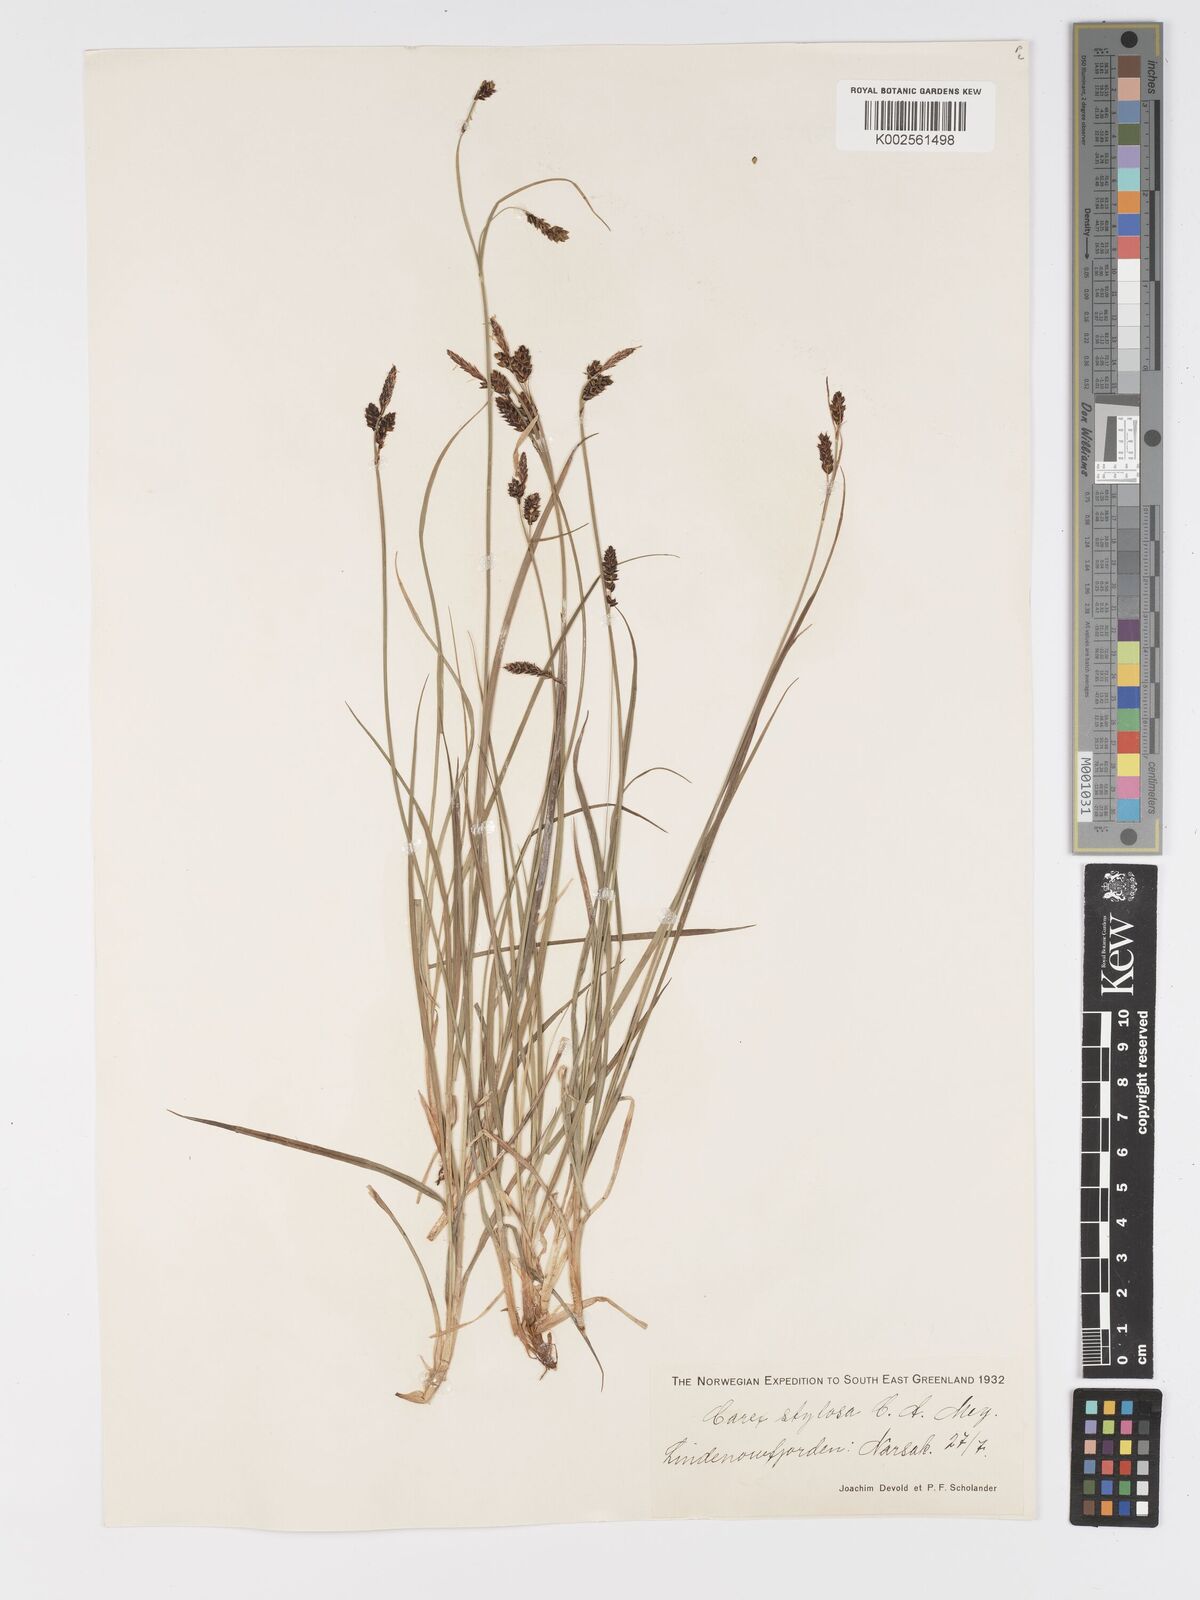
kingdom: Plantae
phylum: Tracheophyta
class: Liliopsida
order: Poales
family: Cyperaceae
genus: Carex
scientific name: Carex stylosa
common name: Long-styled sedge
